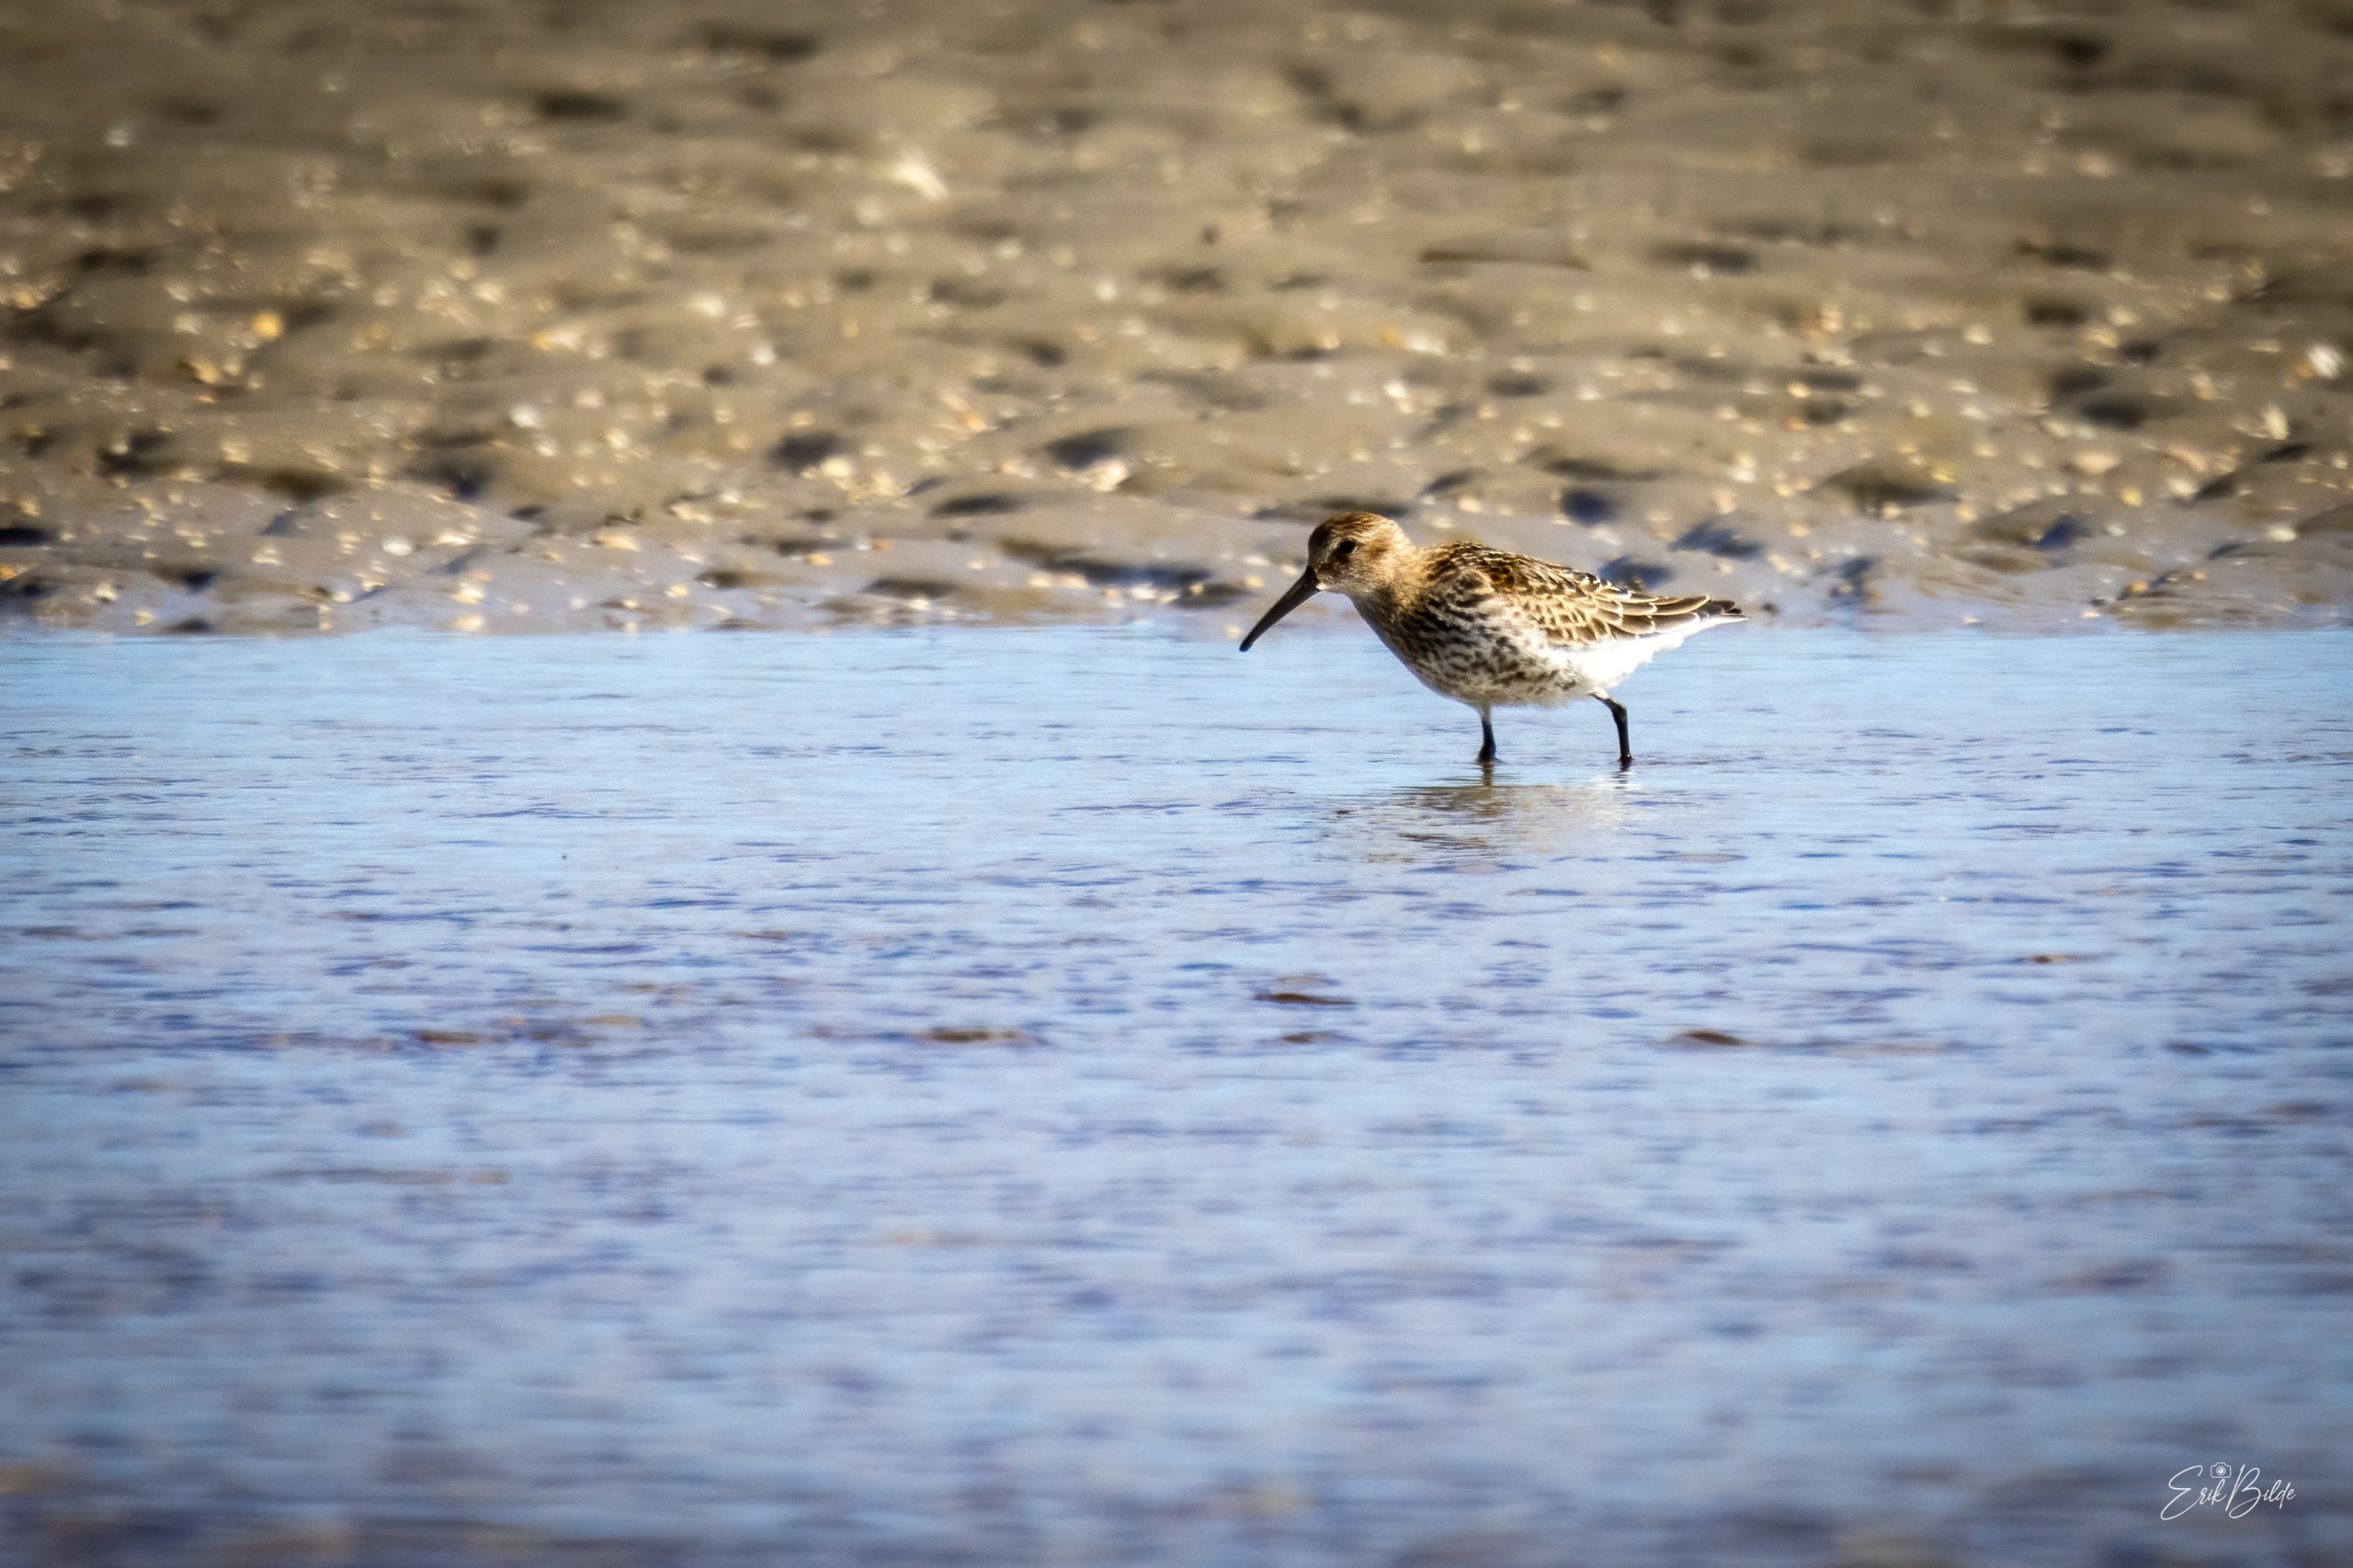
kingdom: Animalia
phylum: Chordata
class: Aves
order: Charadriiformes
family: Scolopacidae
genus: Calidris
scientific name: Calidris alpina
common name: Almindelig ryle
